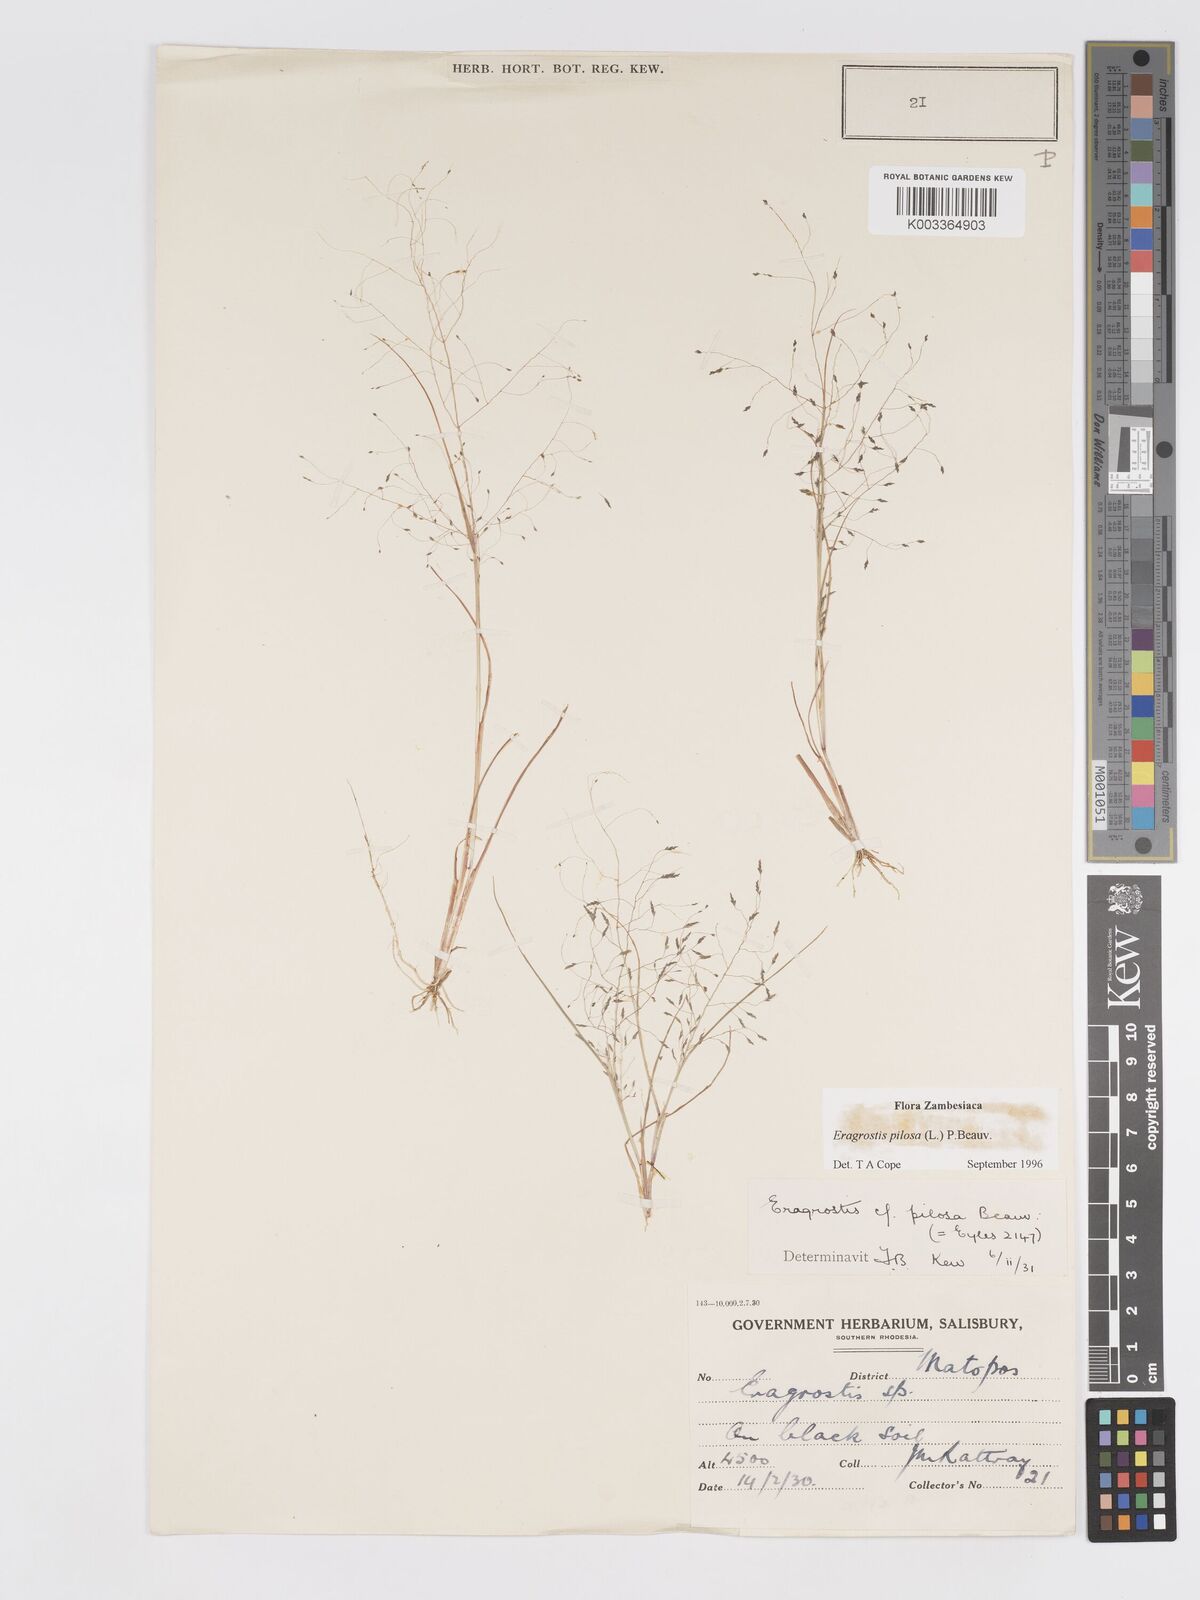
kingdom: Plantae
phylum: Tracheophyta
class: Liliopsida
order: Poales
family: Poaceae
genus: Eragrostis
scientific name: Eragrostis pilosa
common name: Indian lovegrass
